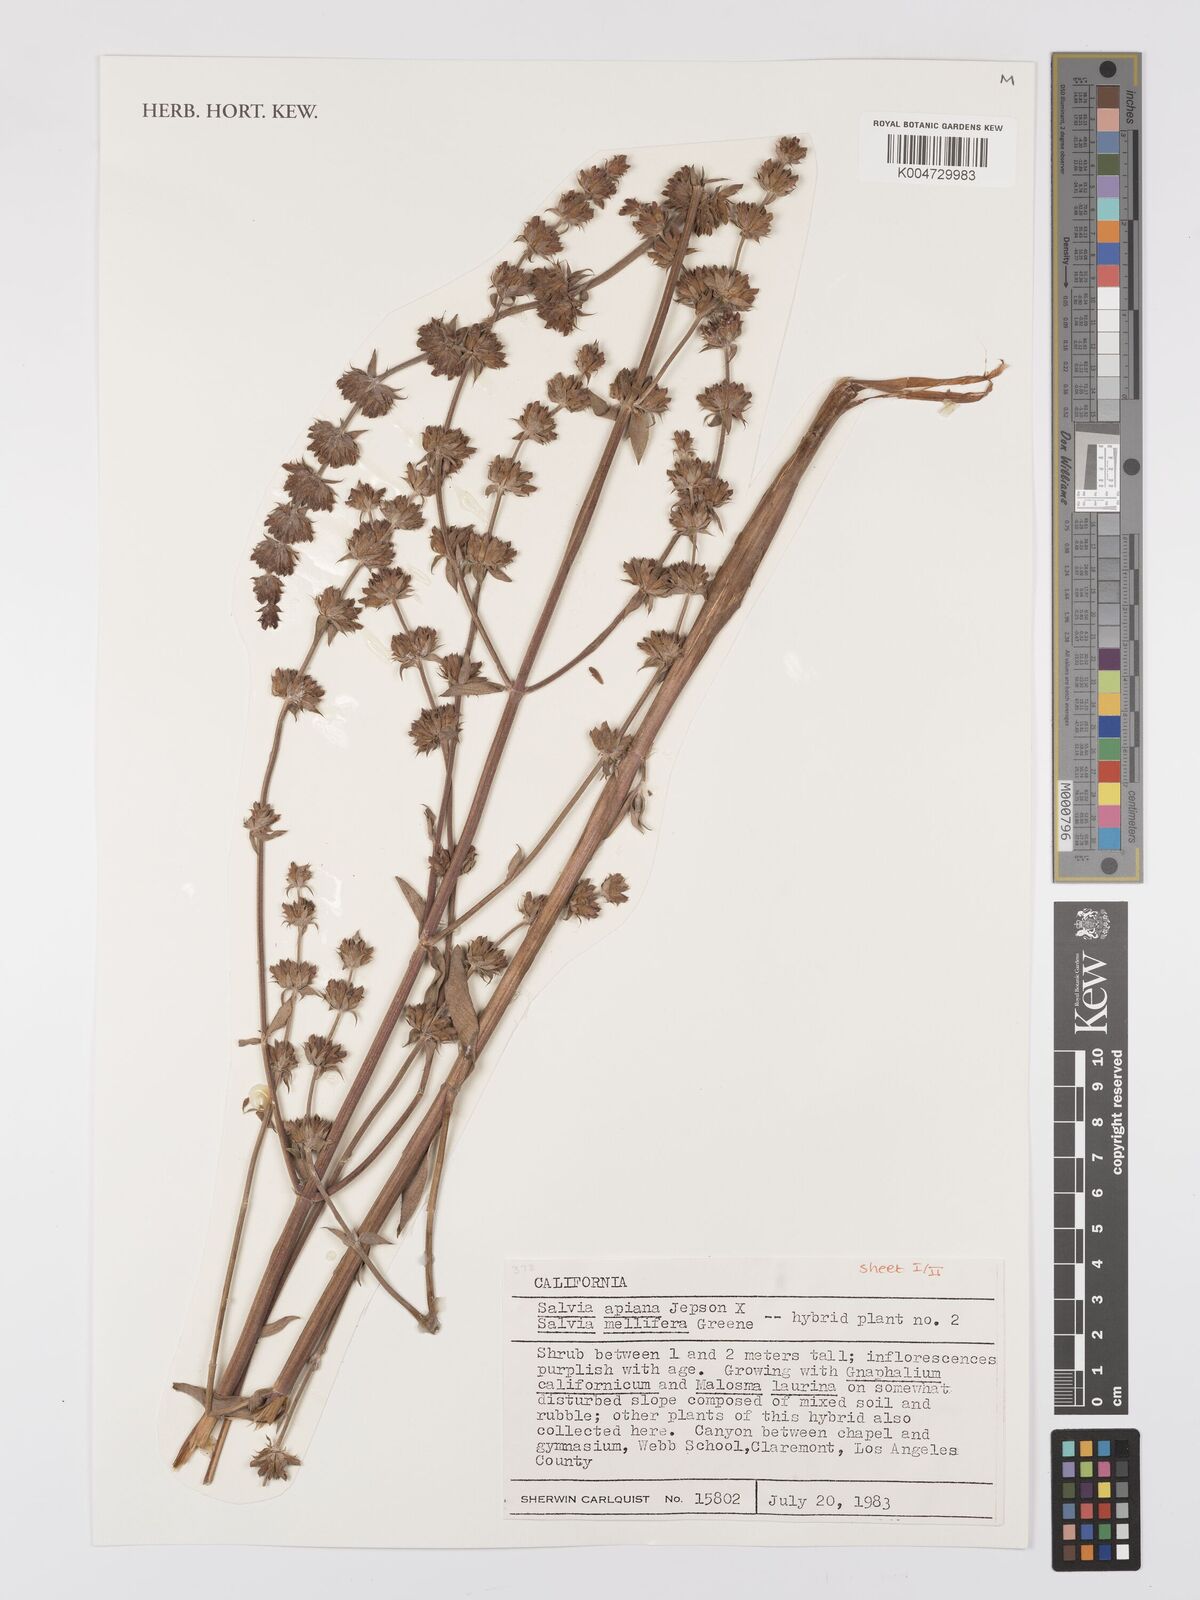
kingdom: Plantae
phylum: Tracheophyta
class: Magnoliopsida
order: Lamiales
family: Lamiaceae
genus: Salvia
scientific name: Salvia apiana
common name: White sage
